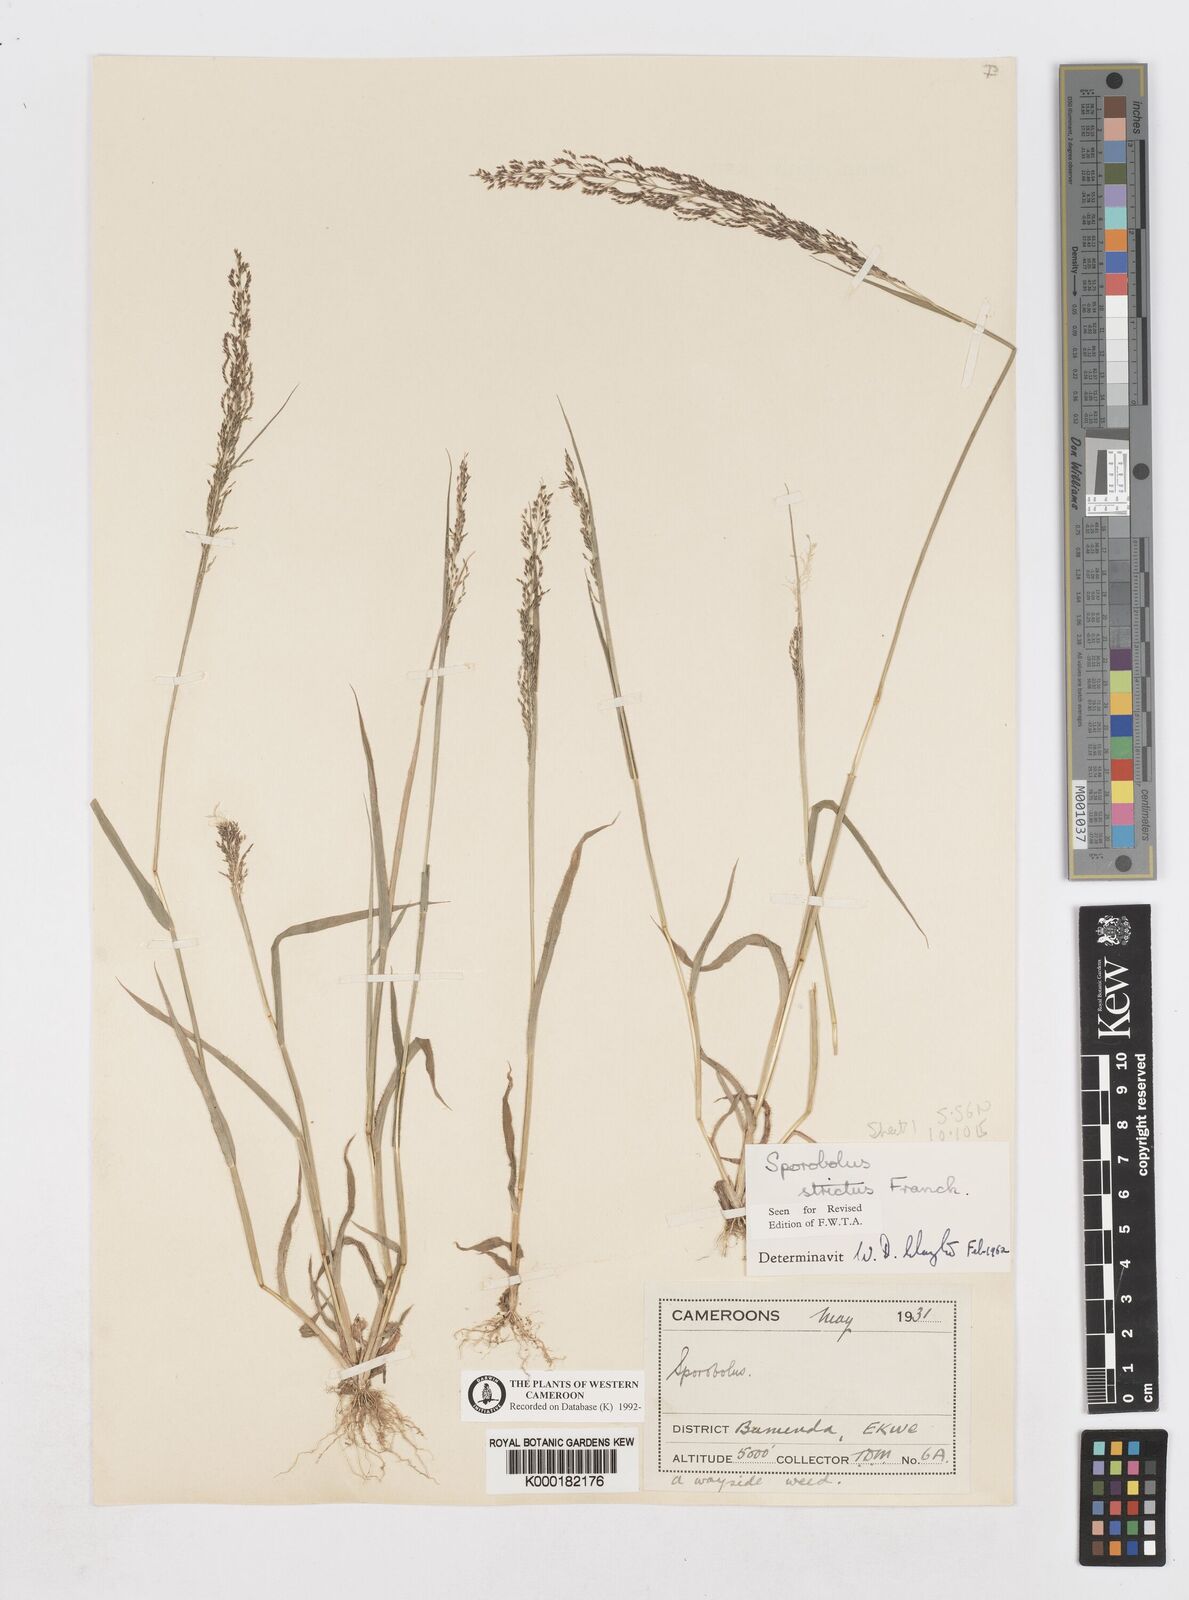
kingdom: Plantae
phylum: Tracheophyta
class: Liliopsida
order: Poales
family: Poaceae
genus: Sporobolus
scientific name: Sporobolus paniculatus
